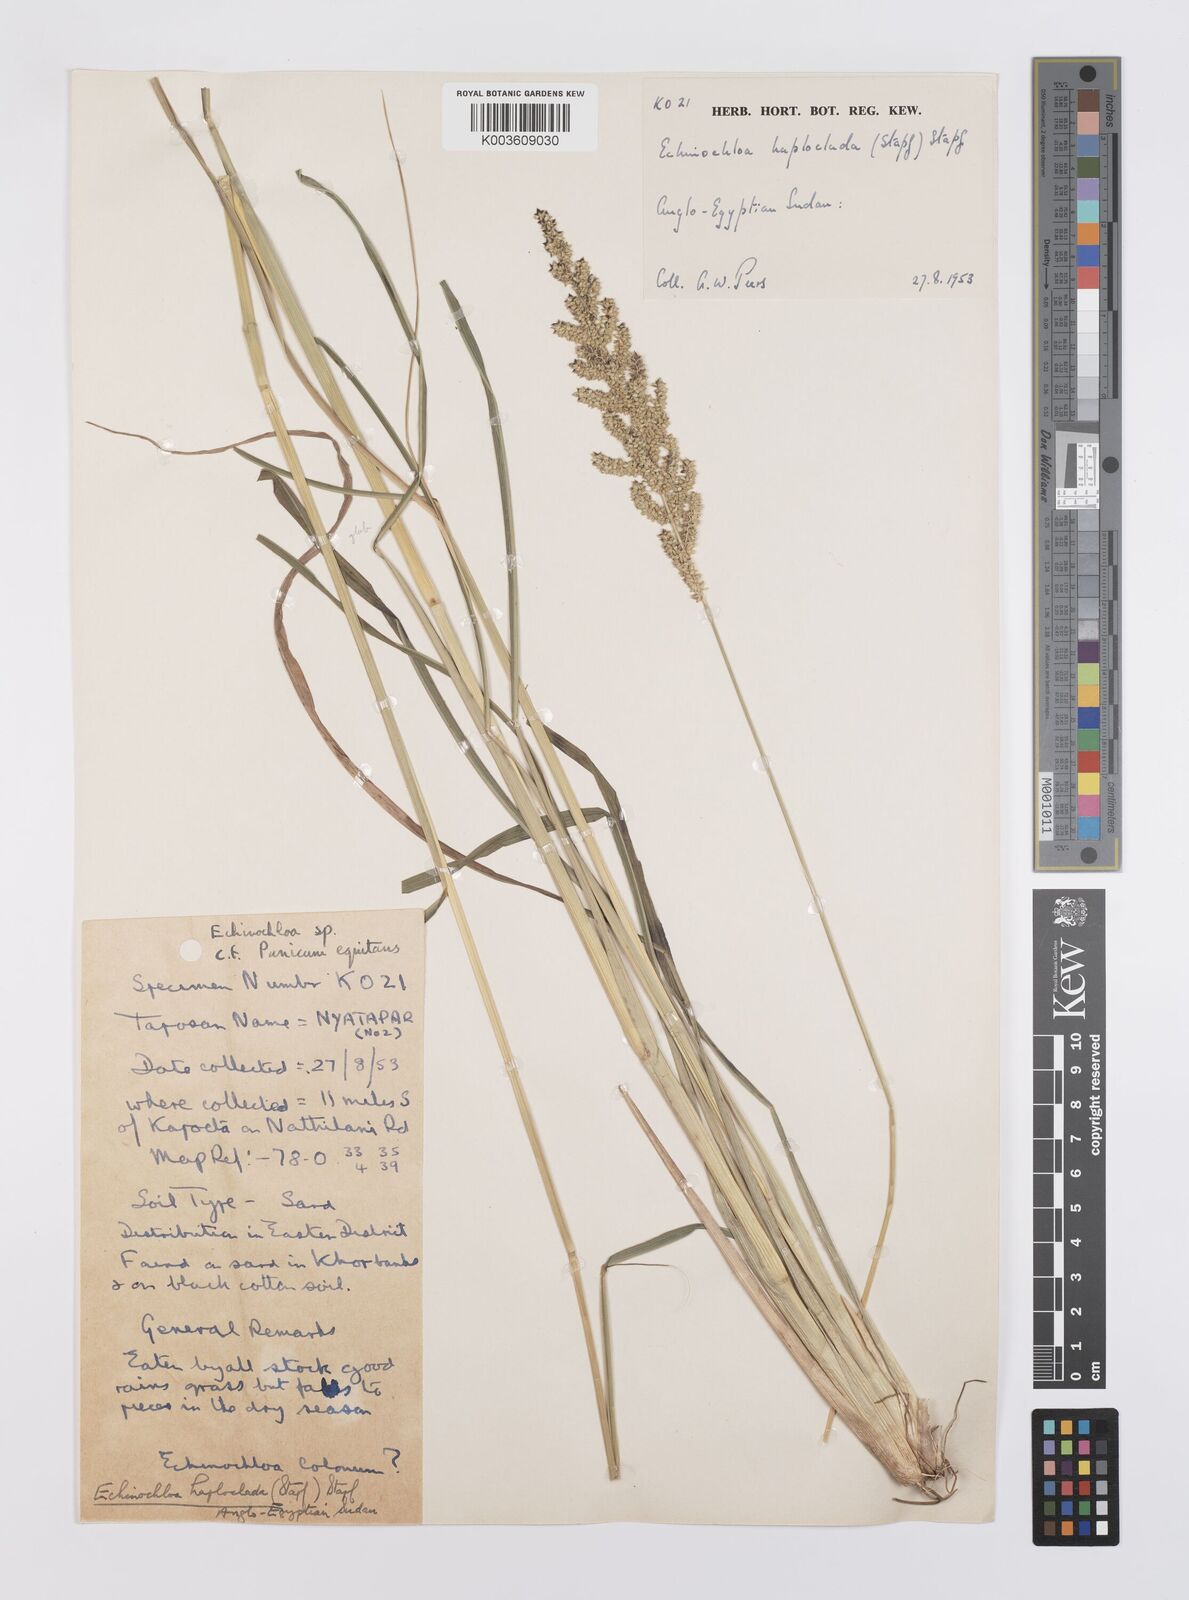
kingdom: Plantae
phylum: Tracheophyta
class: Liliopsida
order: Poales
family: Poaceae
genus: Echinochloa
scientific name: Echinochloa haploclada
